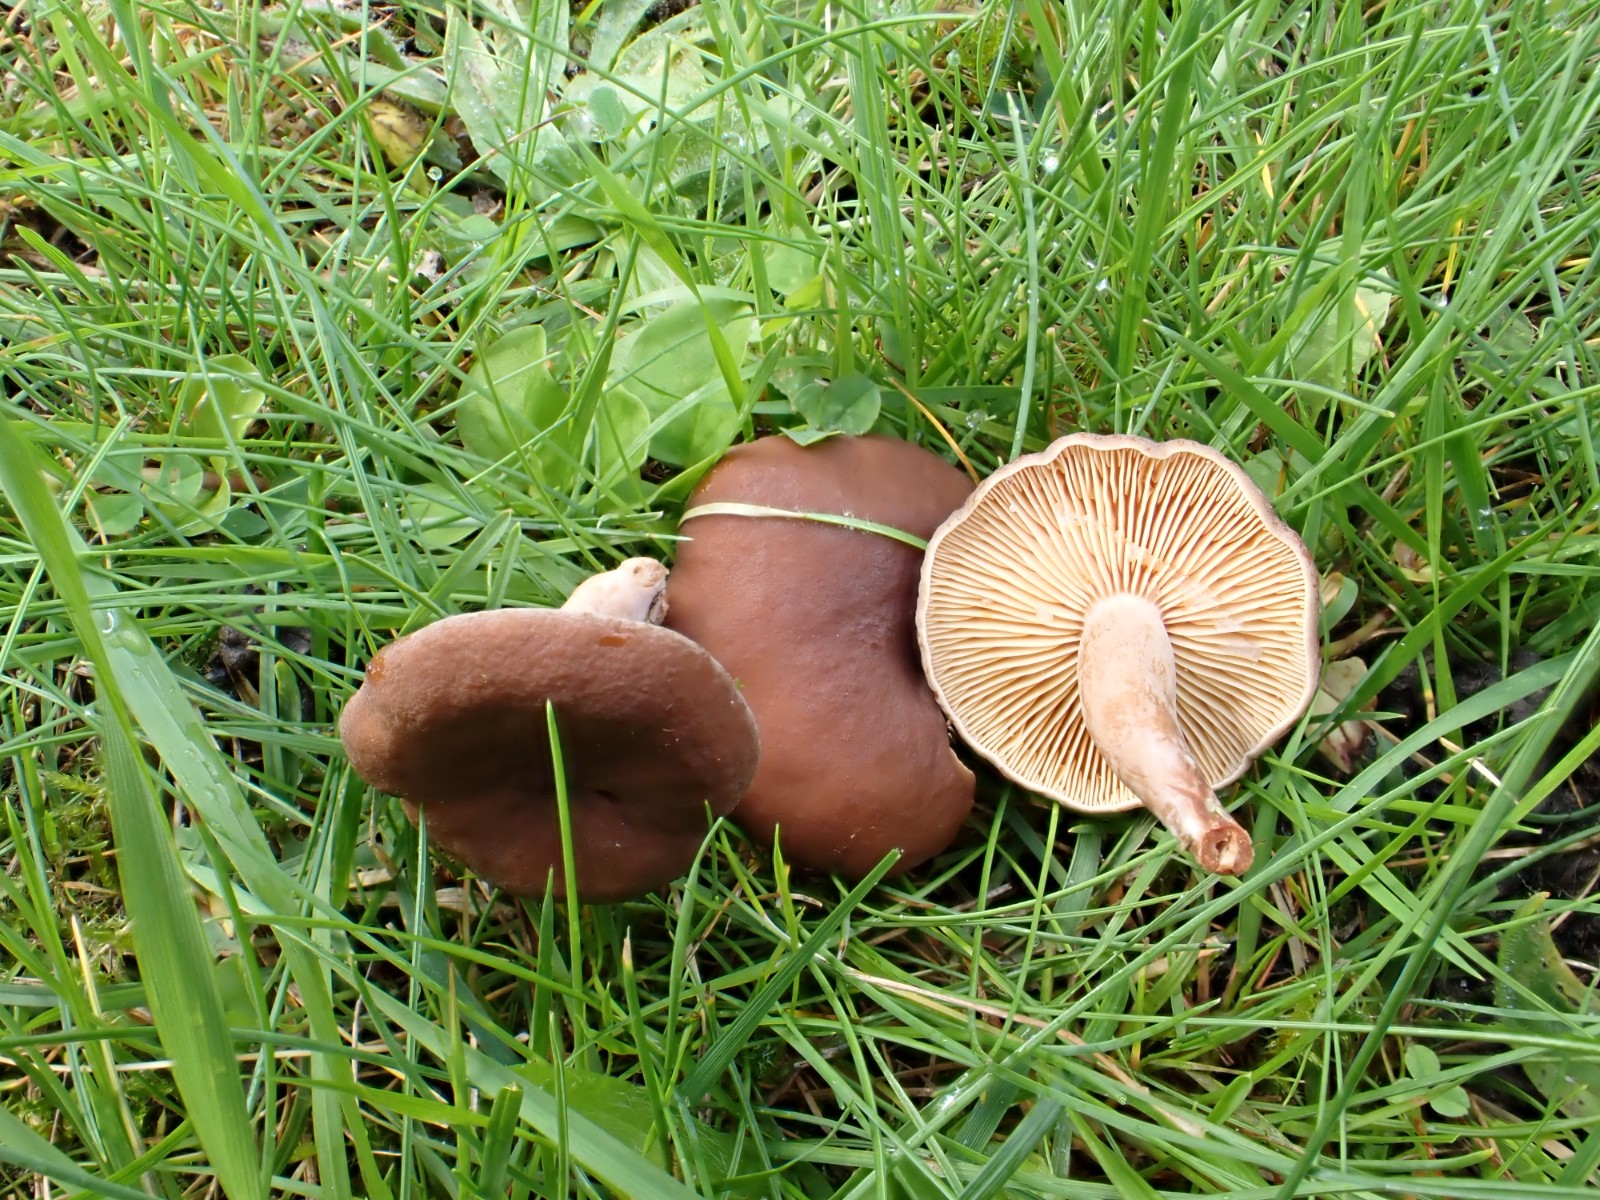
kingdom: Fungi
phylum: Basidiomycota
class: Agaricomycetes
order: Russulales
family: Russulaceae
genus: Lactarius
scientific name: Lactarius serifluus
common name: tæge-mælkehat
